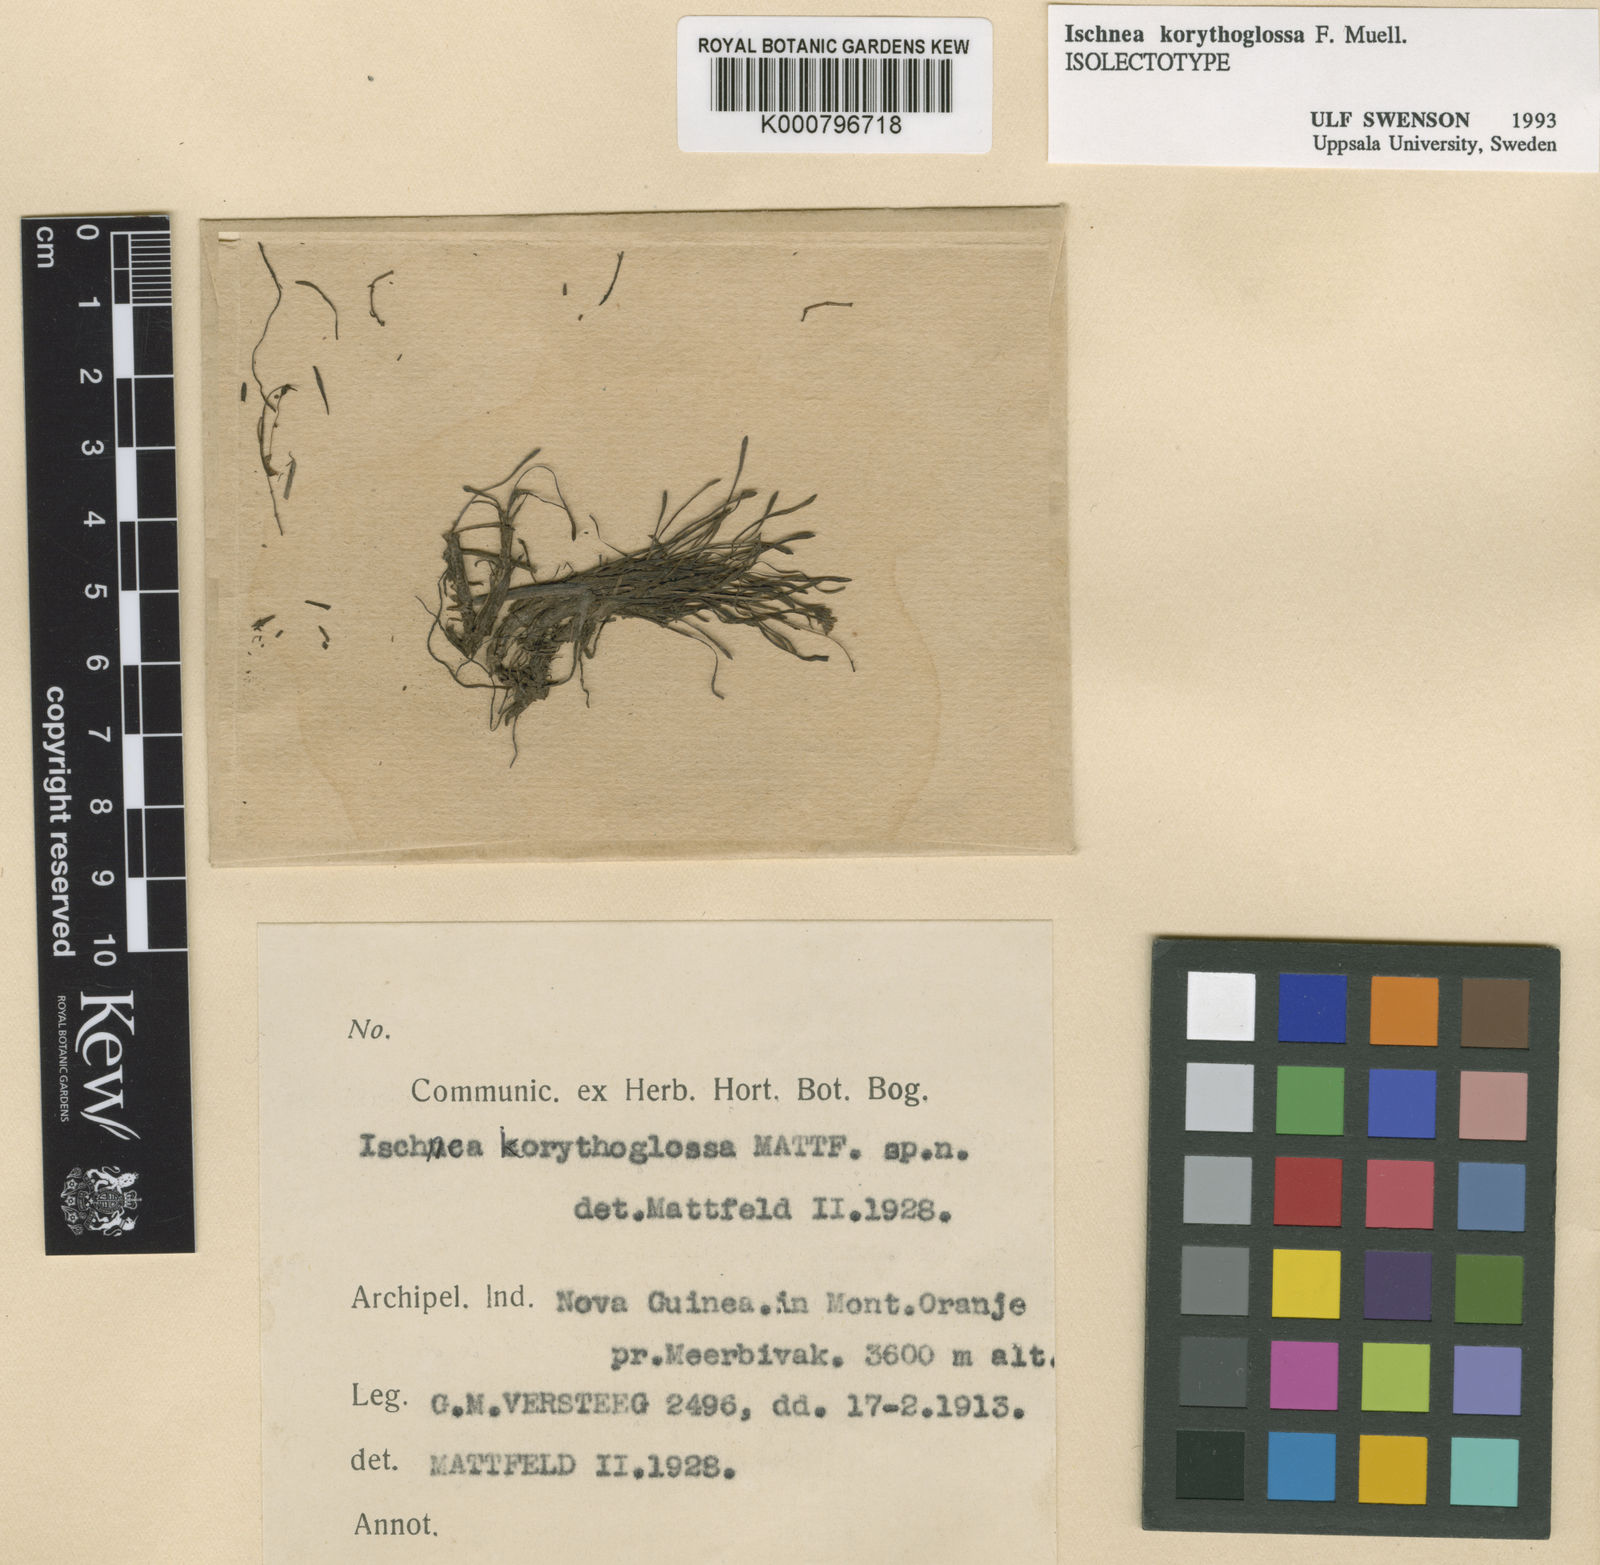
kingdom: Plantae
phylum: Tracheophyta
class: Magnoliopsida
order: Asterales
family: Asteraceae
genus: Ischnea
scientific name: Ischnea korythoglossa
